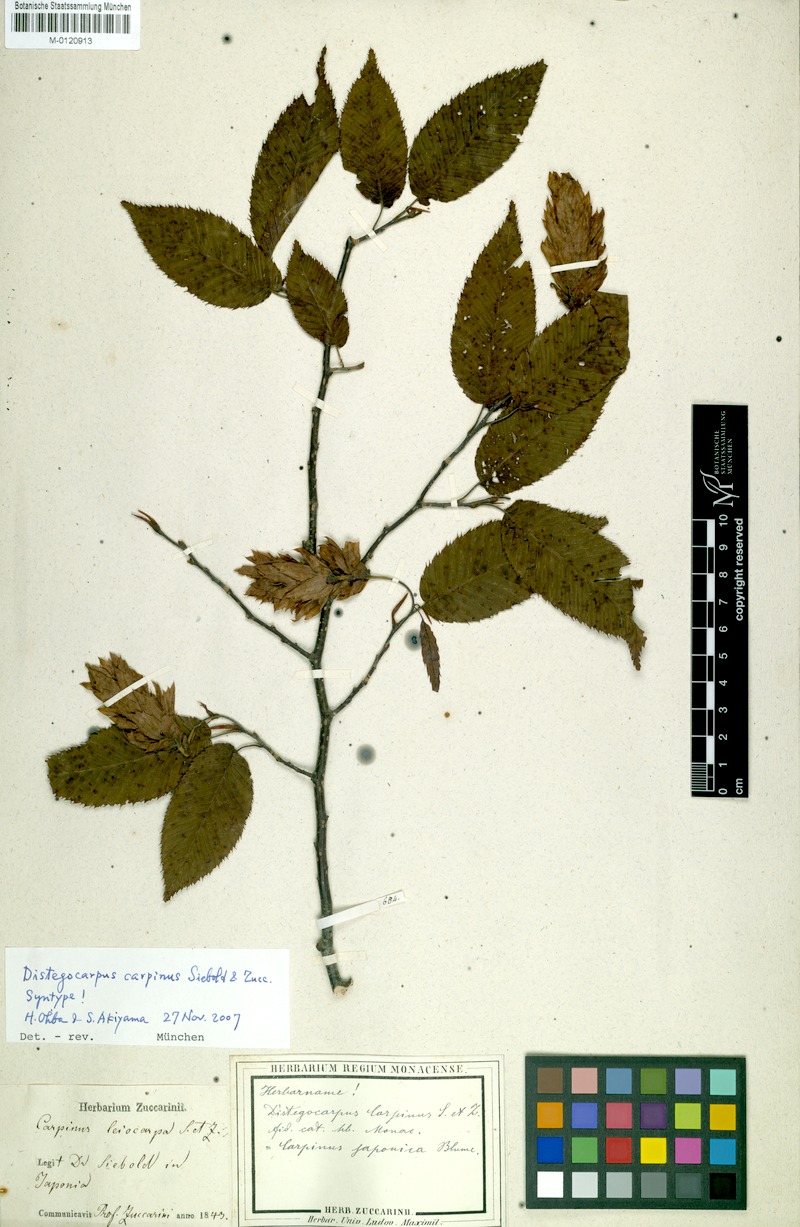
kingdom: Plantae
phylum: Tracheophyta
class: Magnoliopsida
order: Fagales
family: Betulaceae
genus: Carpinus
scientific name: Carpinus japonica
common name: Japanese hornbeam
